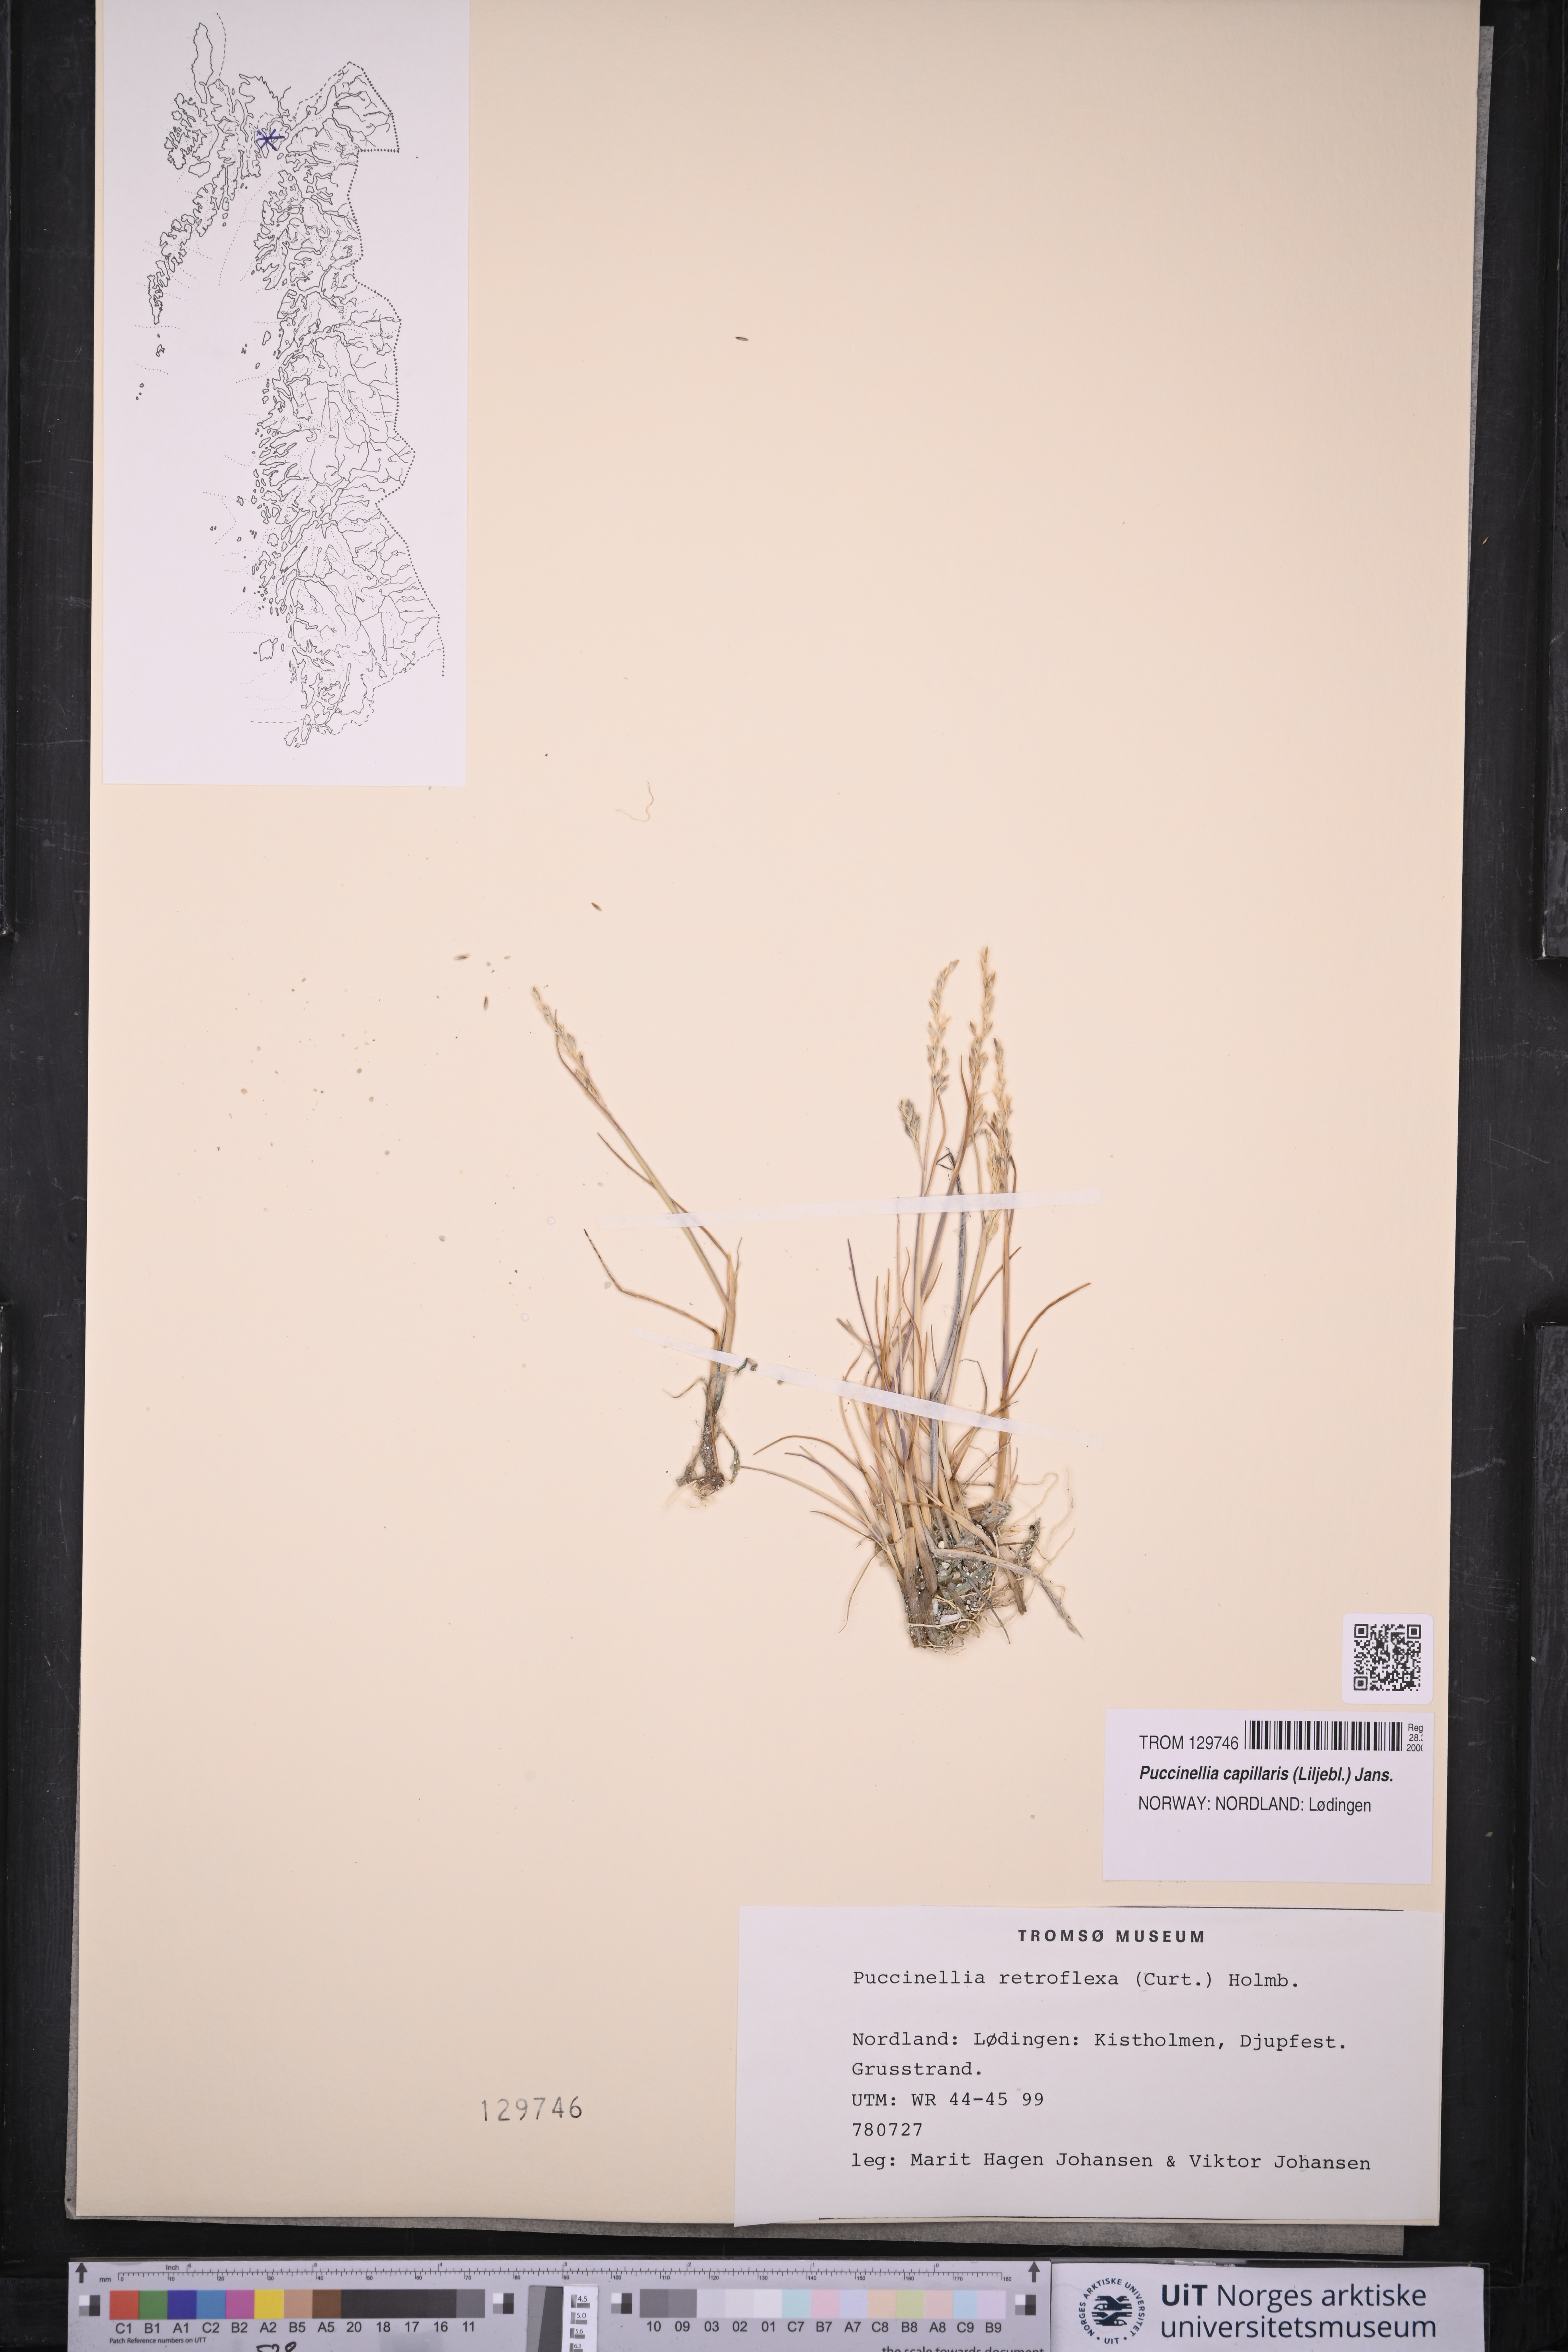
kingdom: Plantae
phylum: Tracheophyta
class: Liliopsida
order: Poales
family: Poaceae
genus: Puccinellia
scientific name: Puccinellia distans
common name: Weeping alkaligrass
